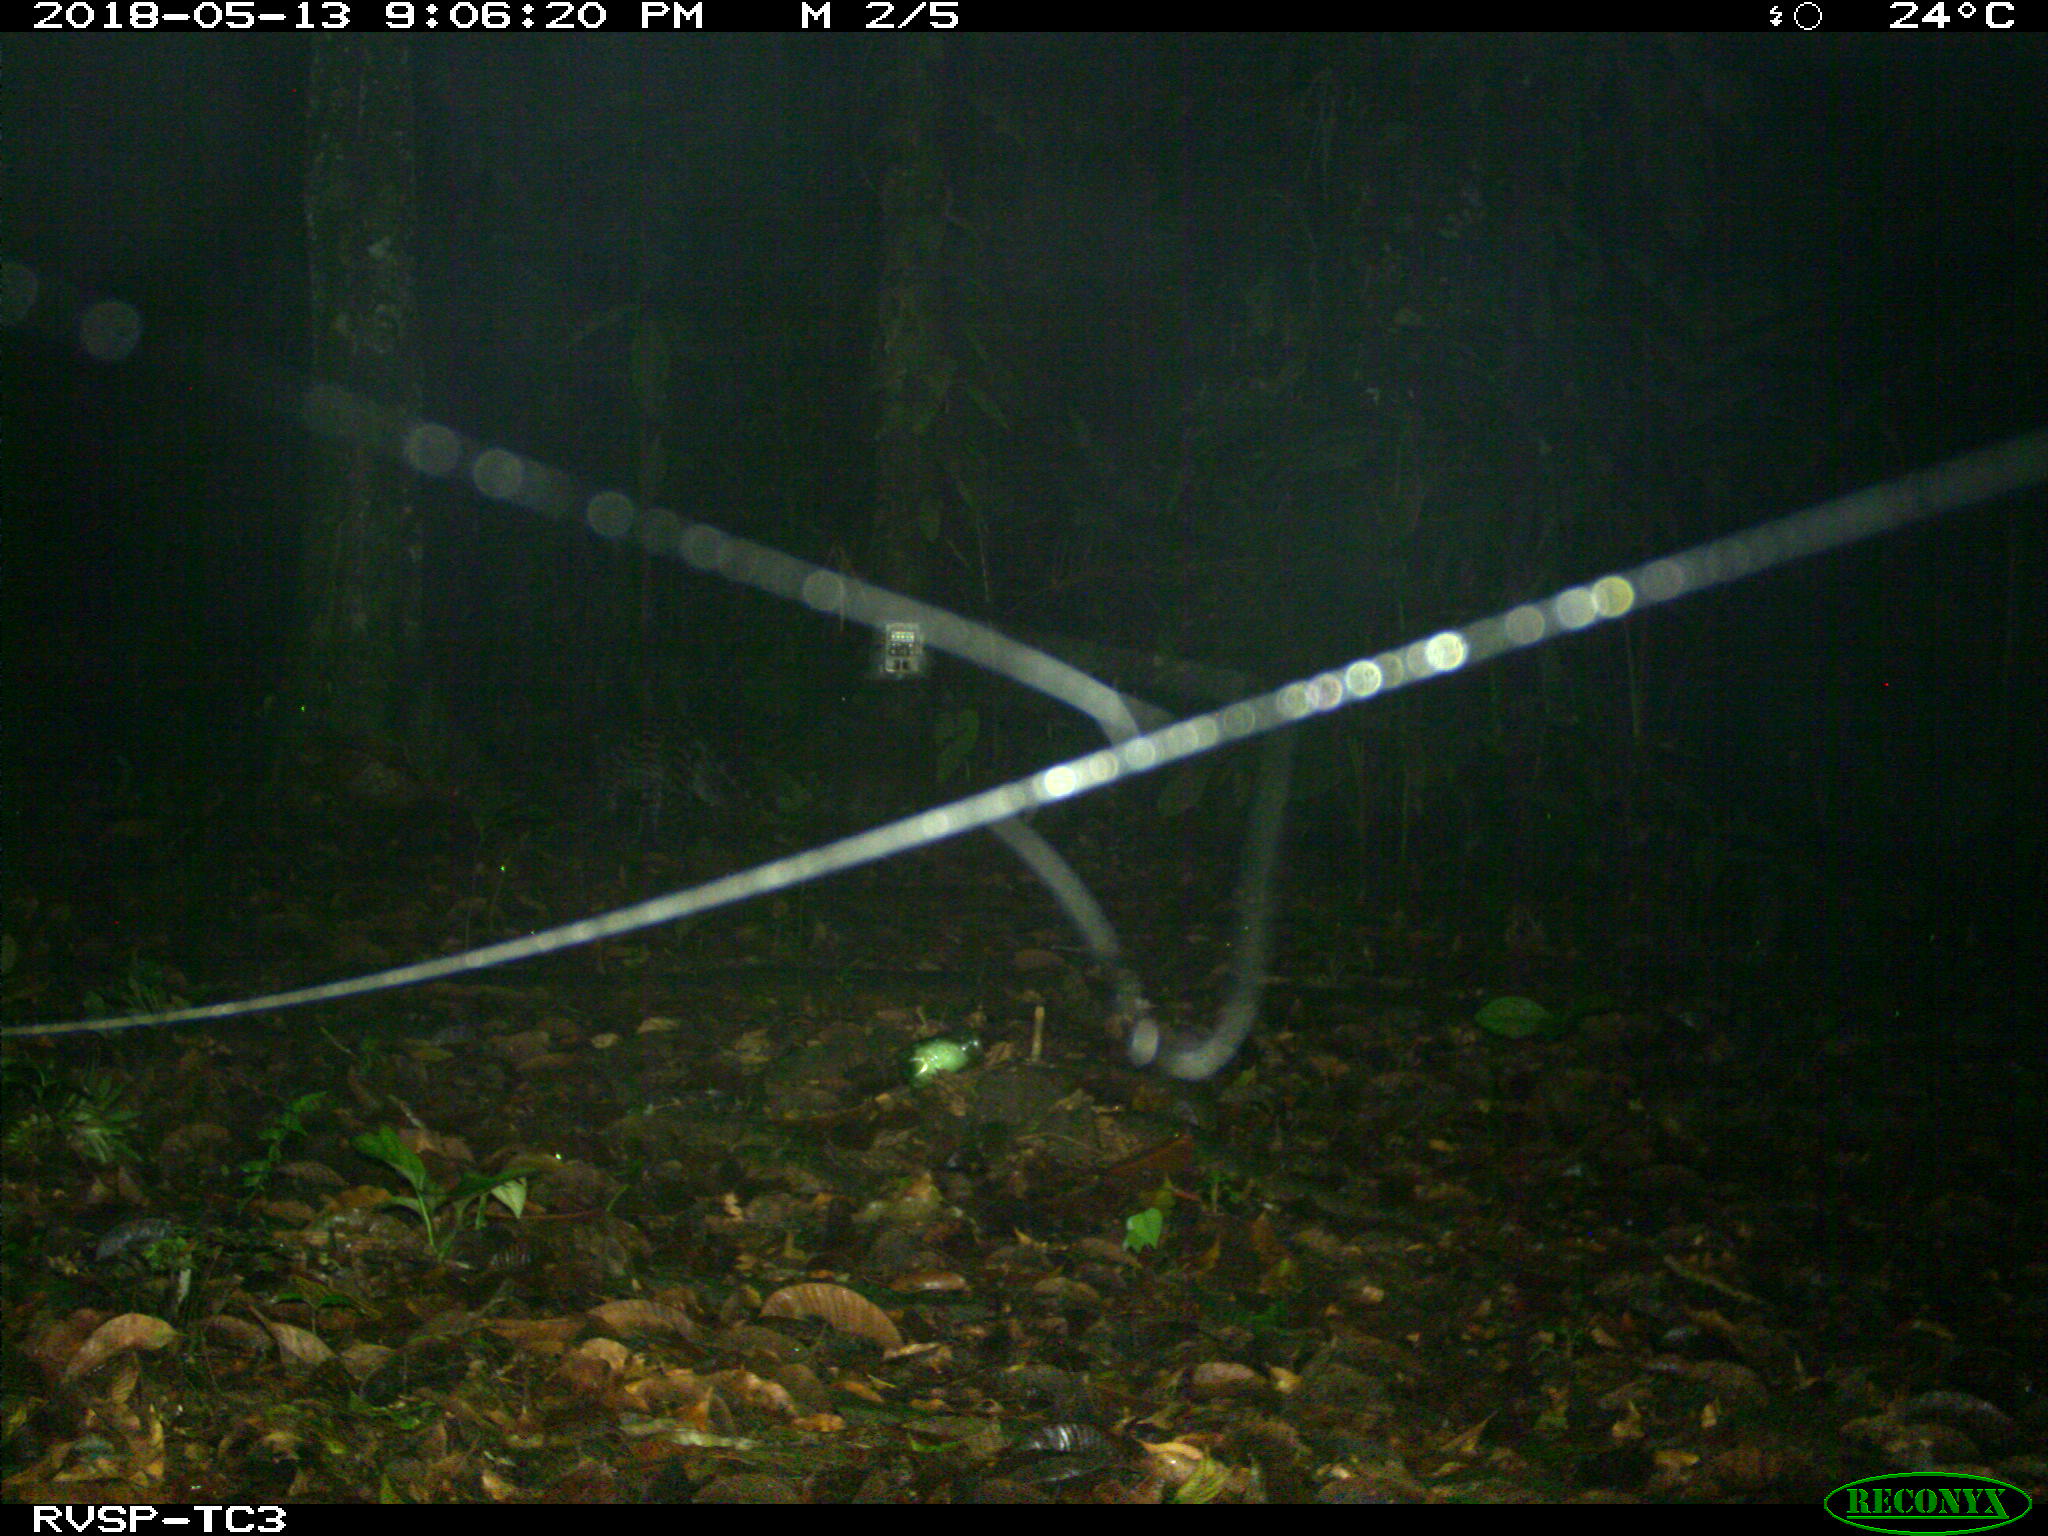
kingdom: Animalia
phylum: Chordata
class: Mammalia
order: Carnivora
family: Felidae
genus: Leopardus
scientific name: Leopardus pardalis
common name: Ocelot
